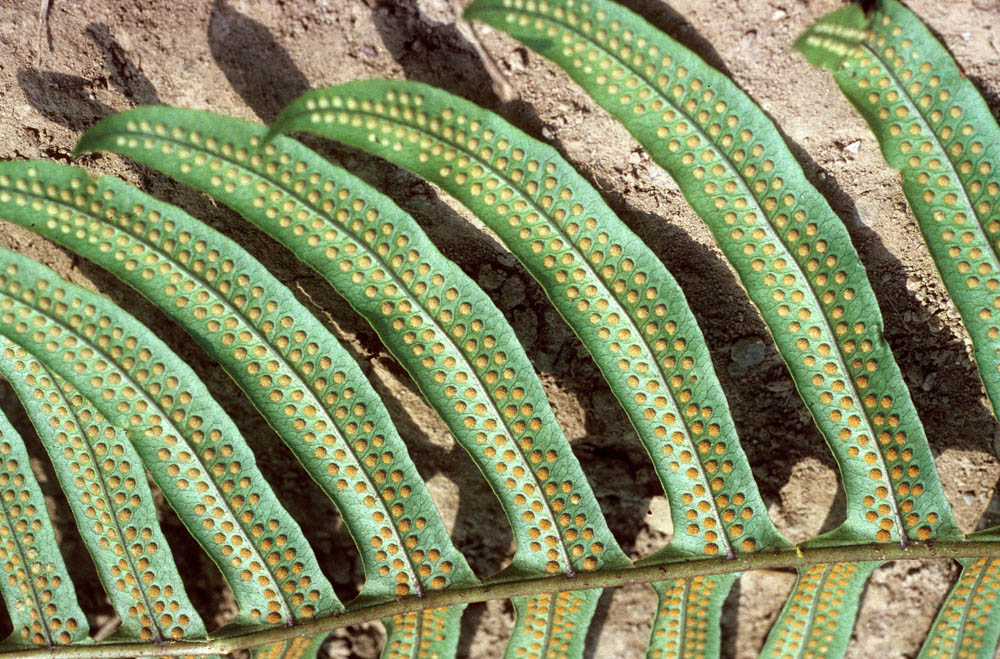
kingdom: Plantae
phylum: Tracheophyta
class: Polypodiopsida
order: Polypodiales
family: Polypodiaceae
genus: Polypodium
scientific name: Polypodium
